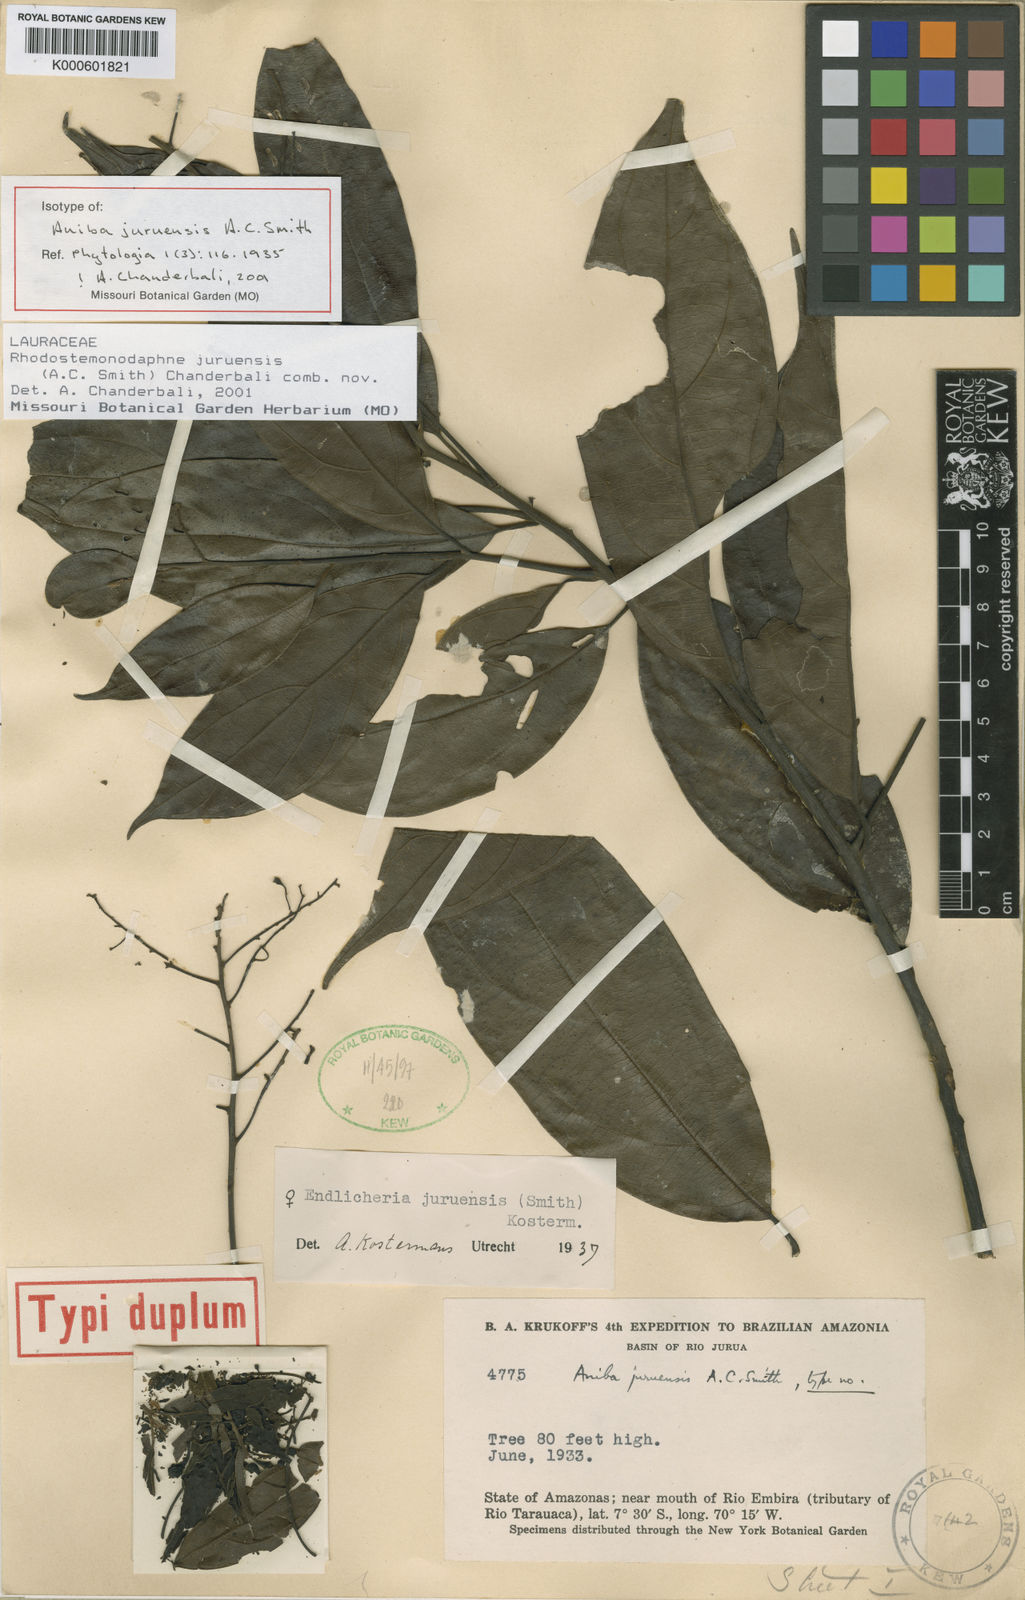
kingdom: Plantae
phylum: Tracheophyta
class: Magnoliopsida
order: Laurales
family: Lauraceae
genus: Rhodostemonodaphne
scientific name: Rhodostemonodaphne juruensis
